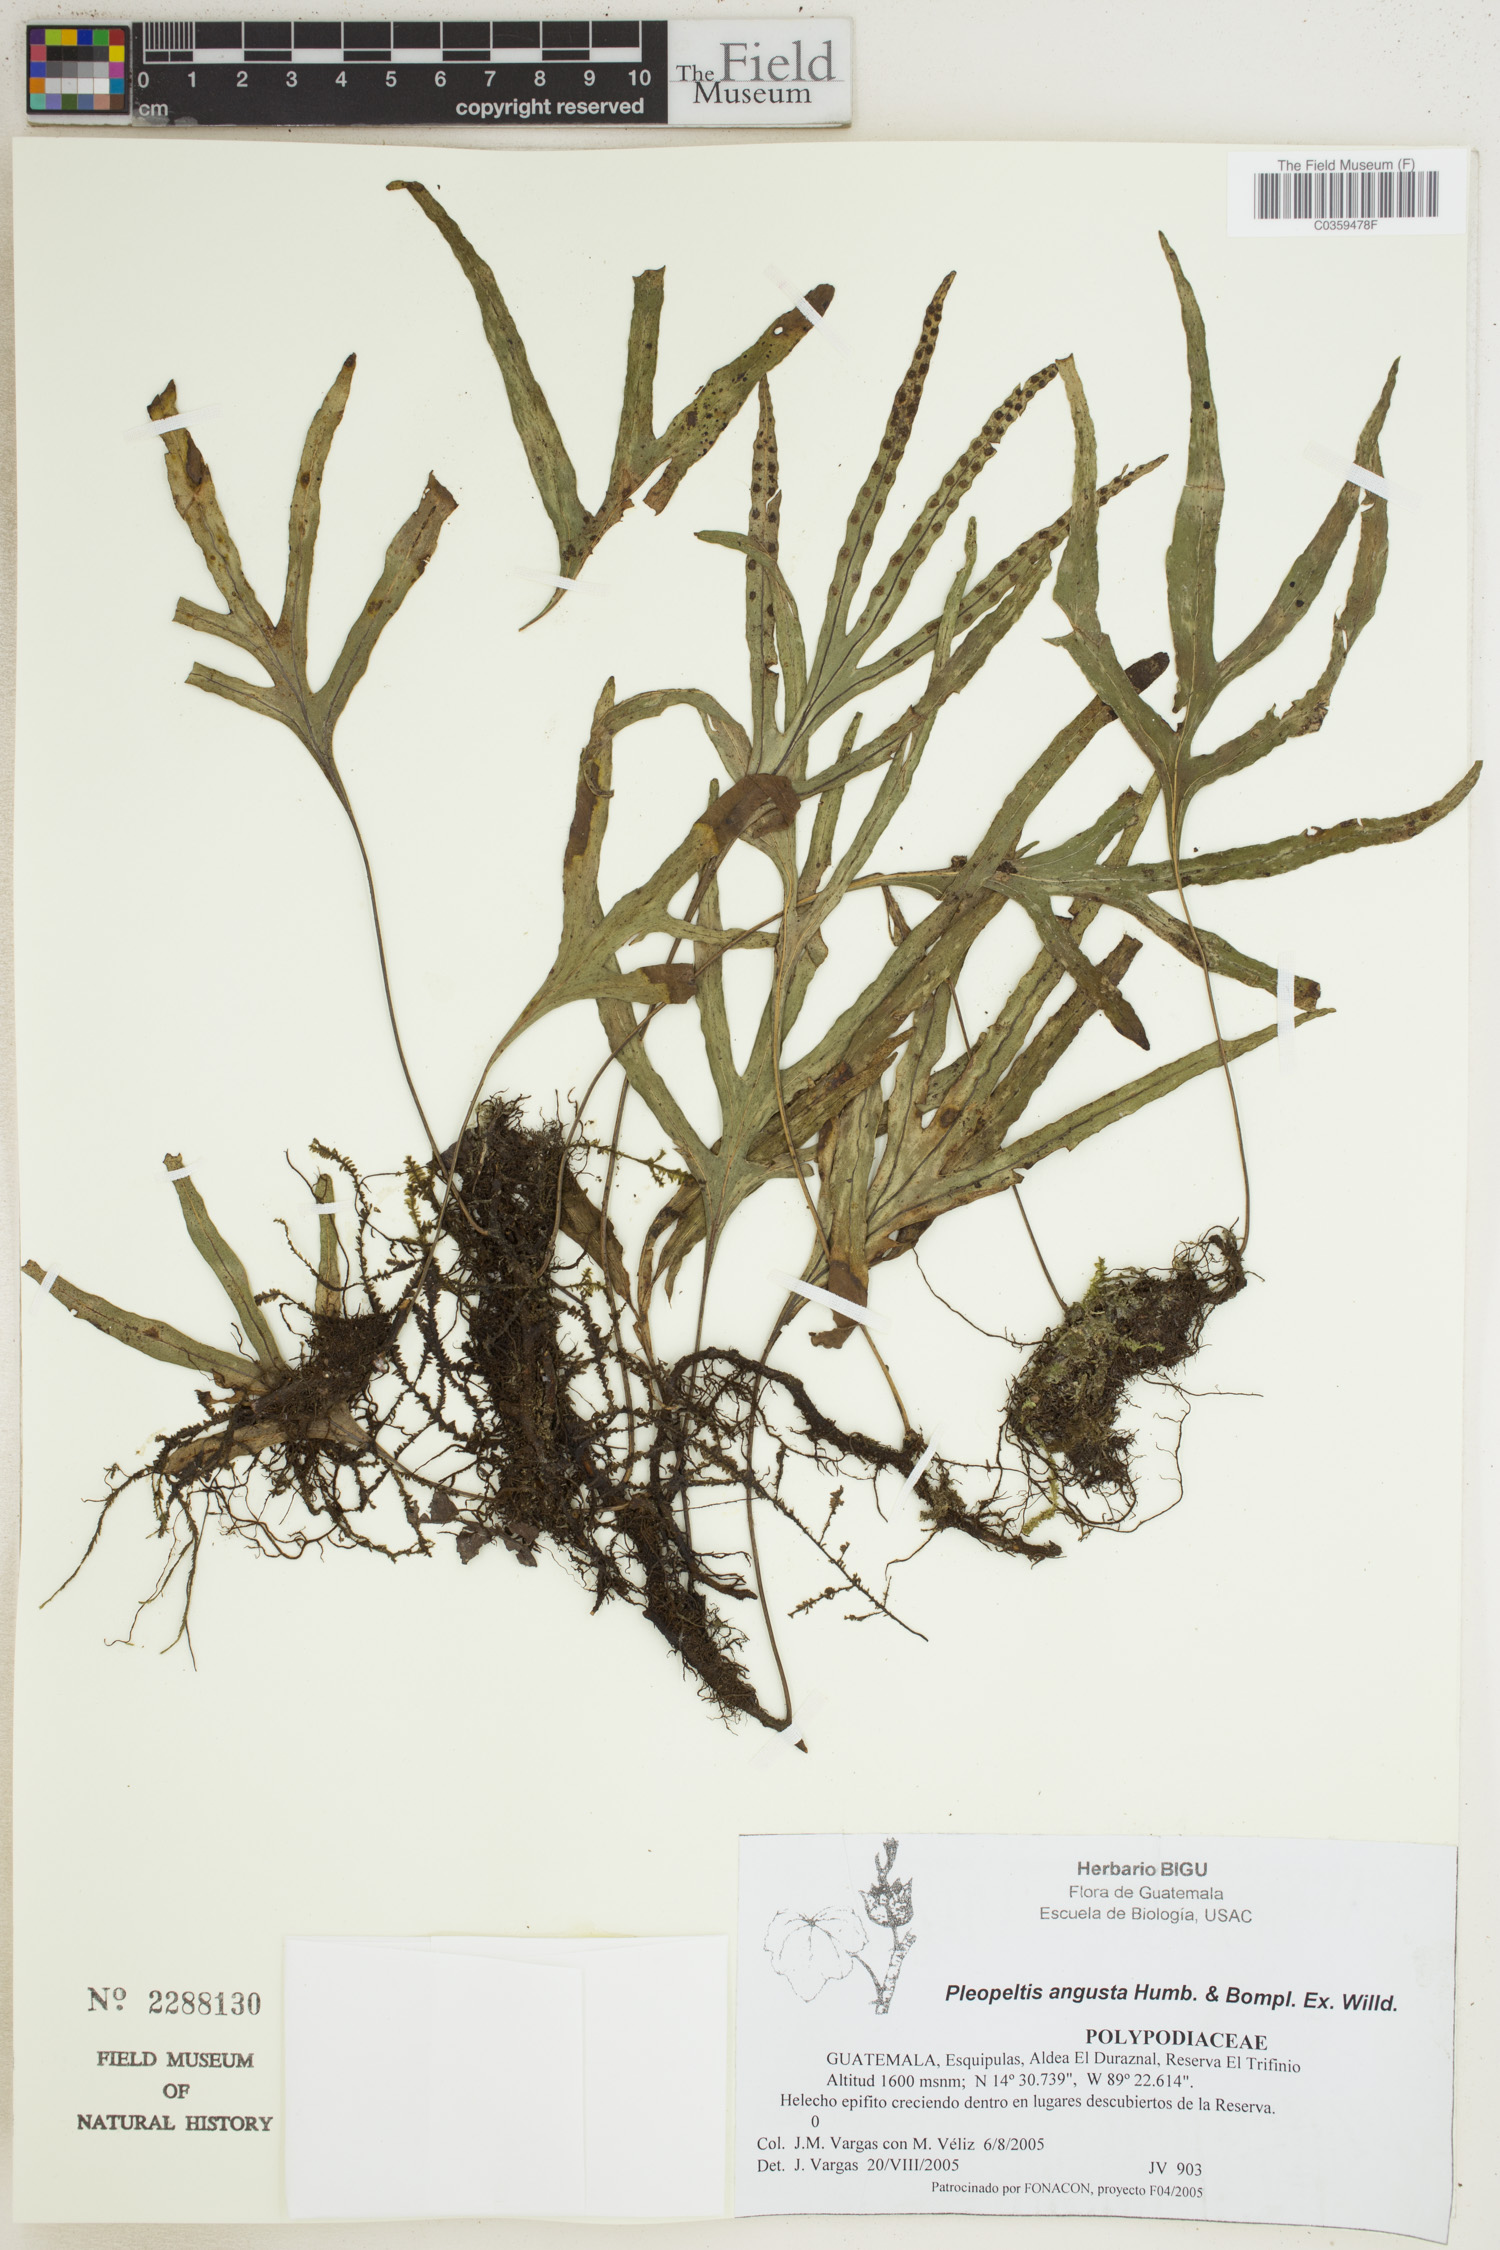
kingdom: Plantae
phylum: Tracheophyta
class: Polypodiopsida
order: Polypodiales
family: Polypodiaceae
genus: Pleopeltis
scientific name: Pleopeltis angusta
